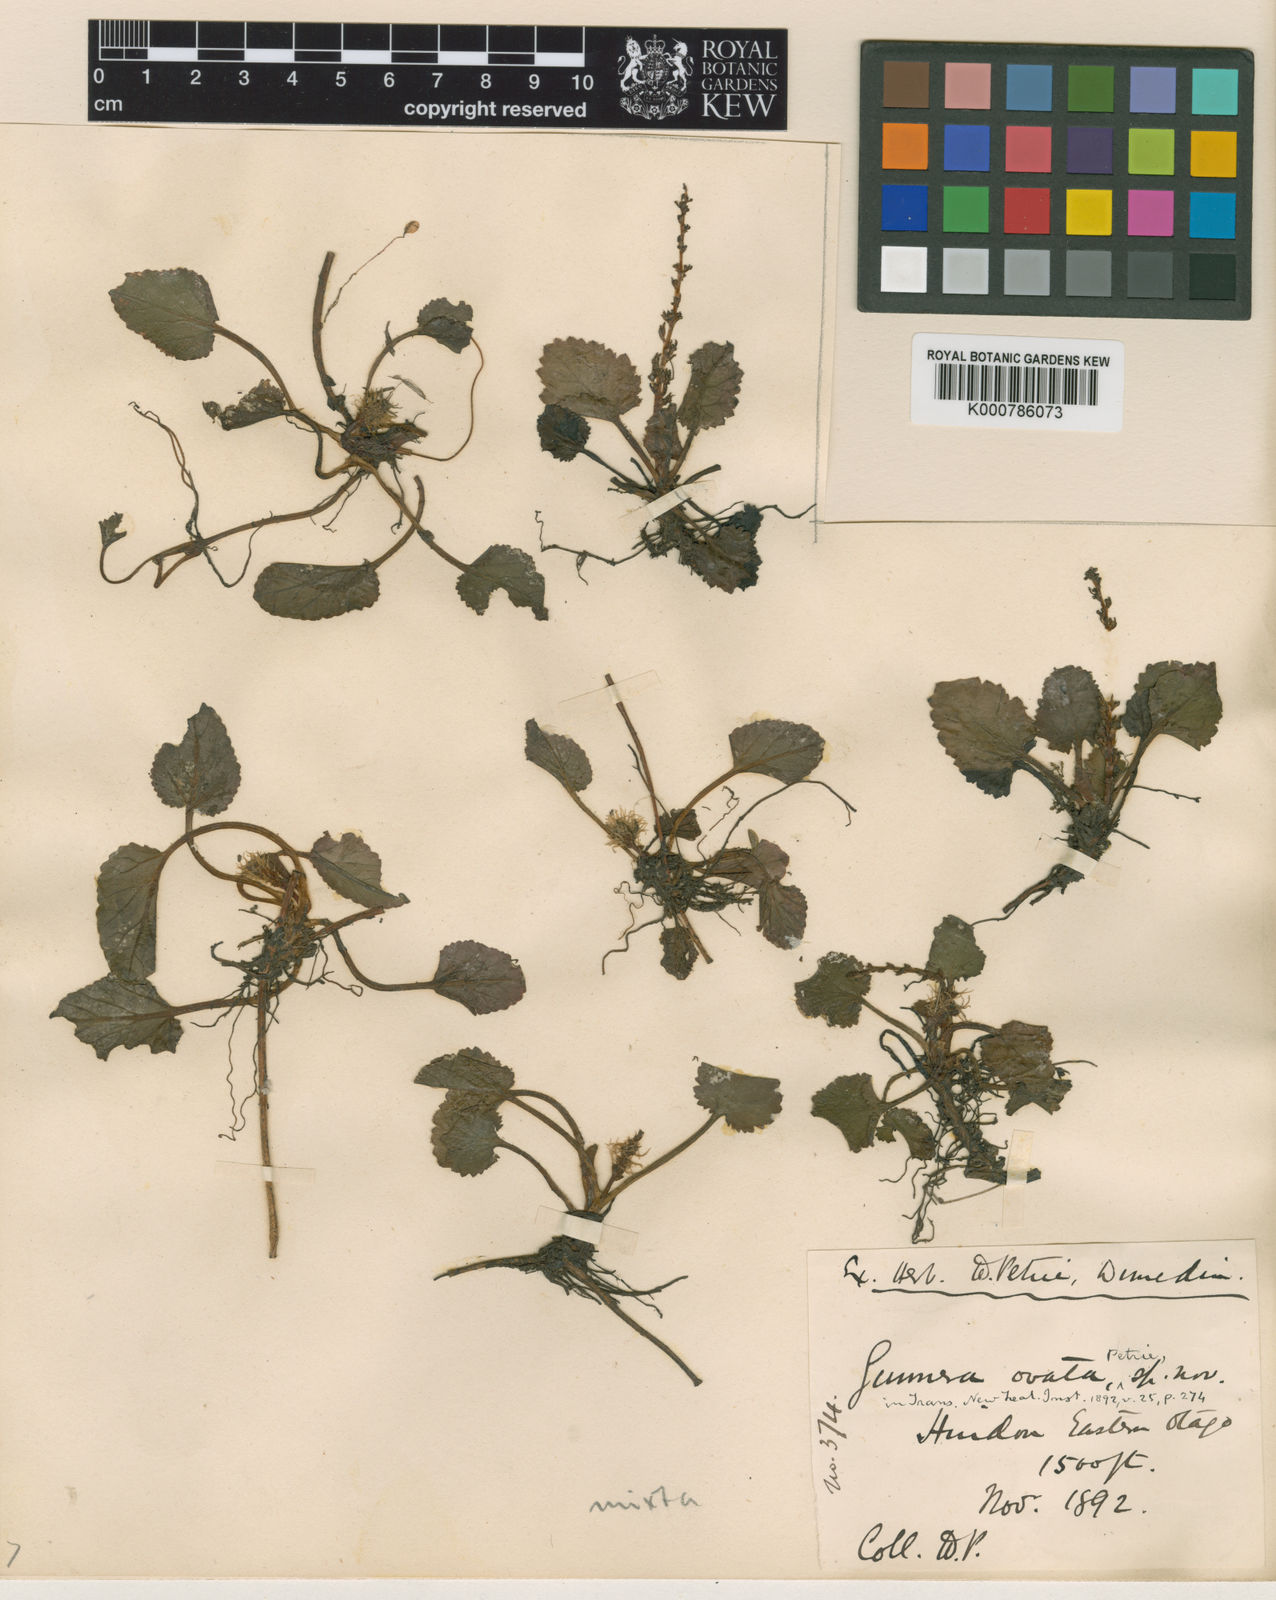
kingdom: Plantae
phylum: Tracheophyta
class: Magnoliopsida
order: Gunnerales
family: Gunneraceae
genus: Gunnera
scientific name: Gunnera monoica
